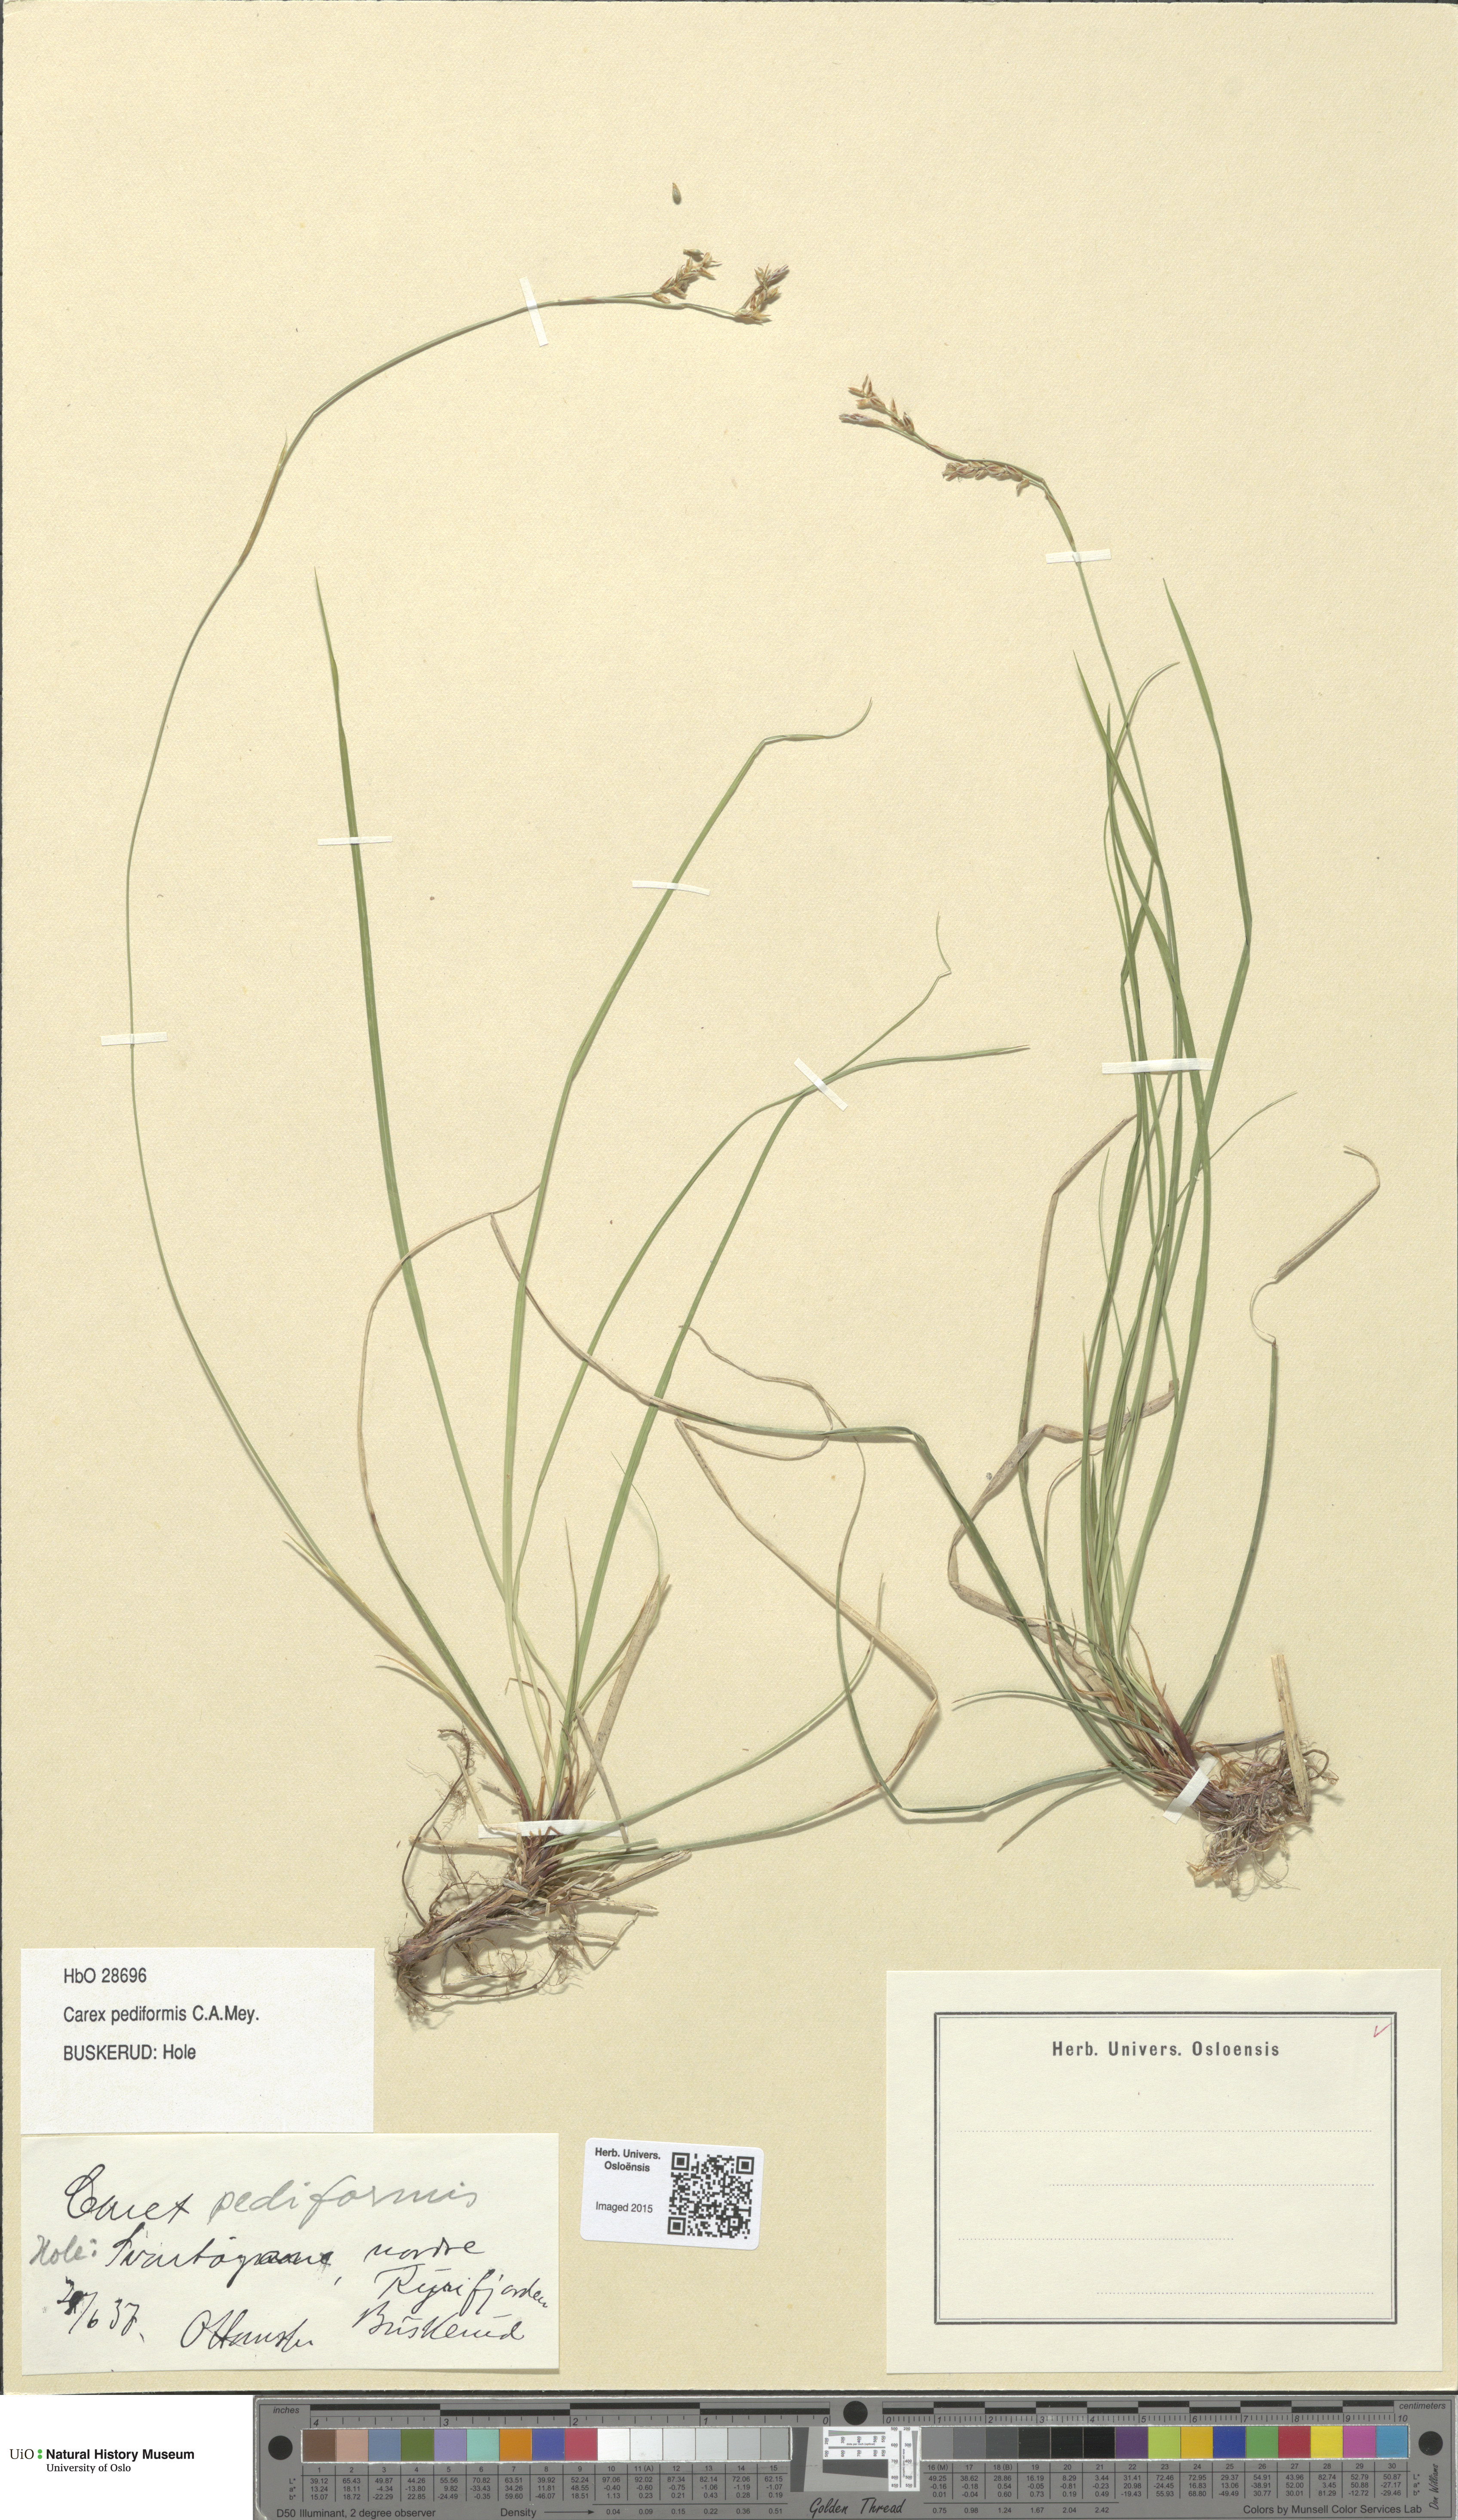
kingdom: Plantae
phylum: Tracheophyta
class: Liliopsida
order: Poales
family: Cyperaceae
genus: Carex
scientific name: Carex rhizina
